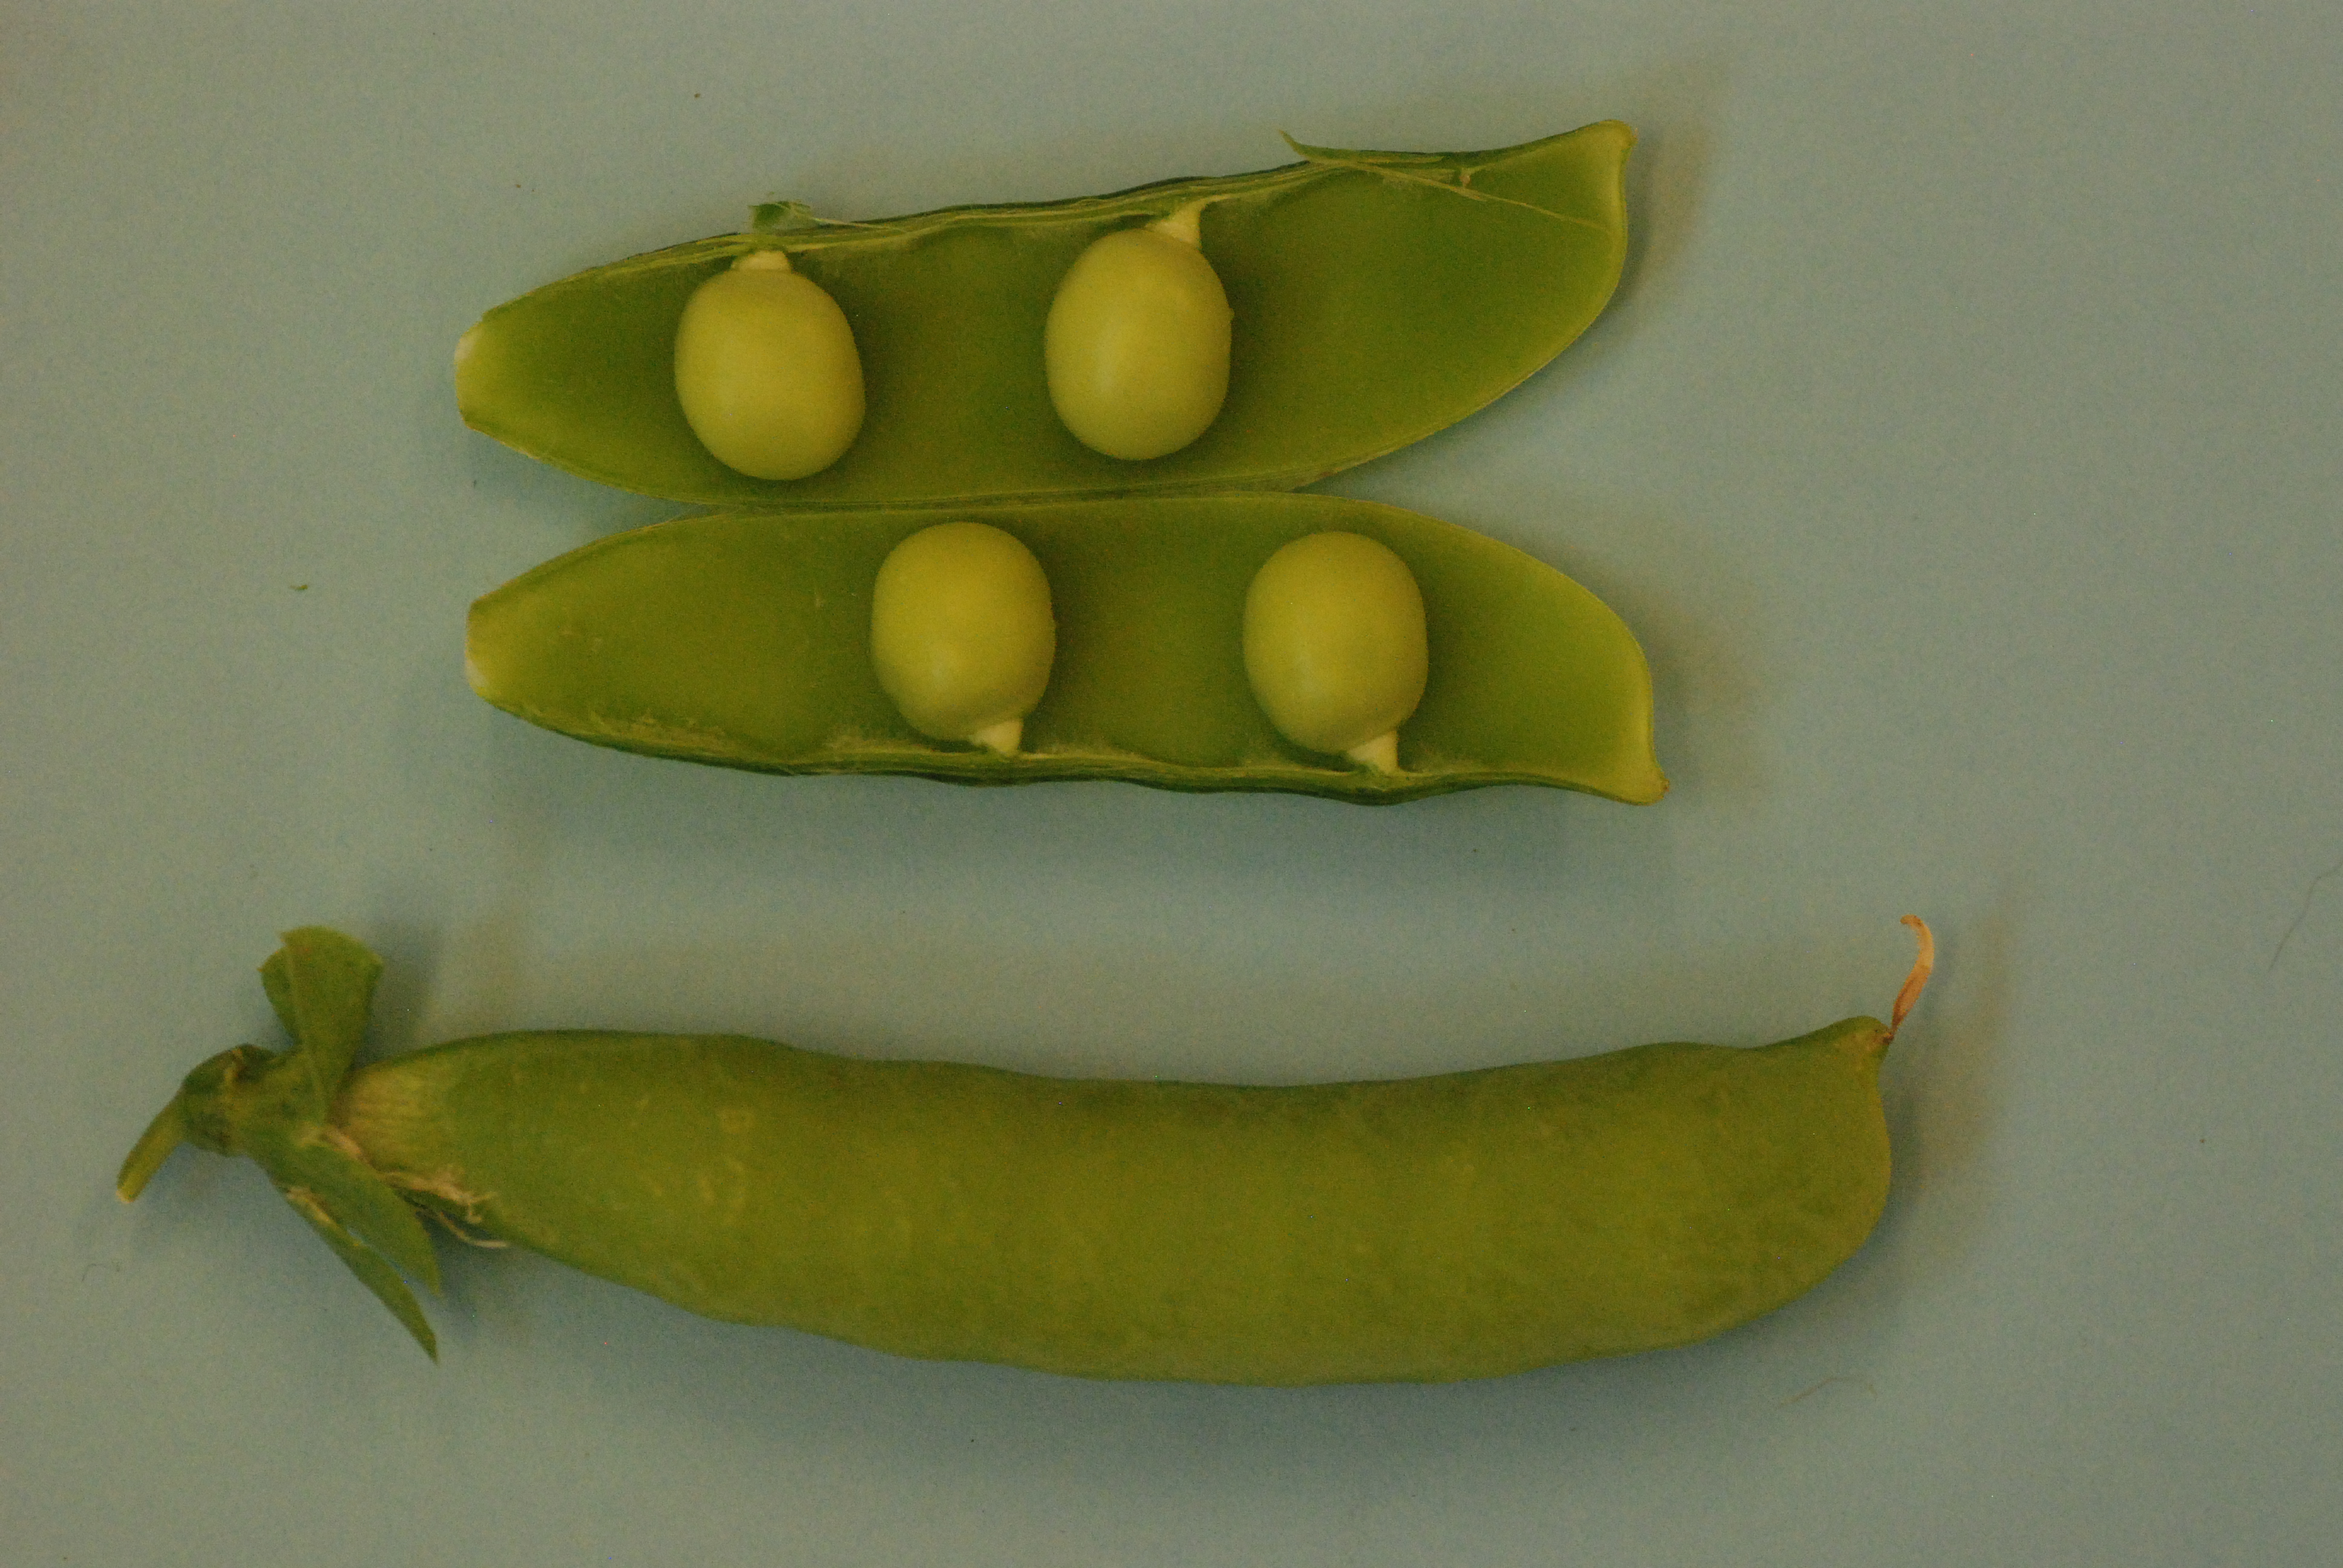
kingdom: Plantae
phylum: Tracheophyta
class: Magnoliopsida
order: Fabales
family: Fabaceae
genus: Lathyrus
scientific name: Lathyrus oleraceus
